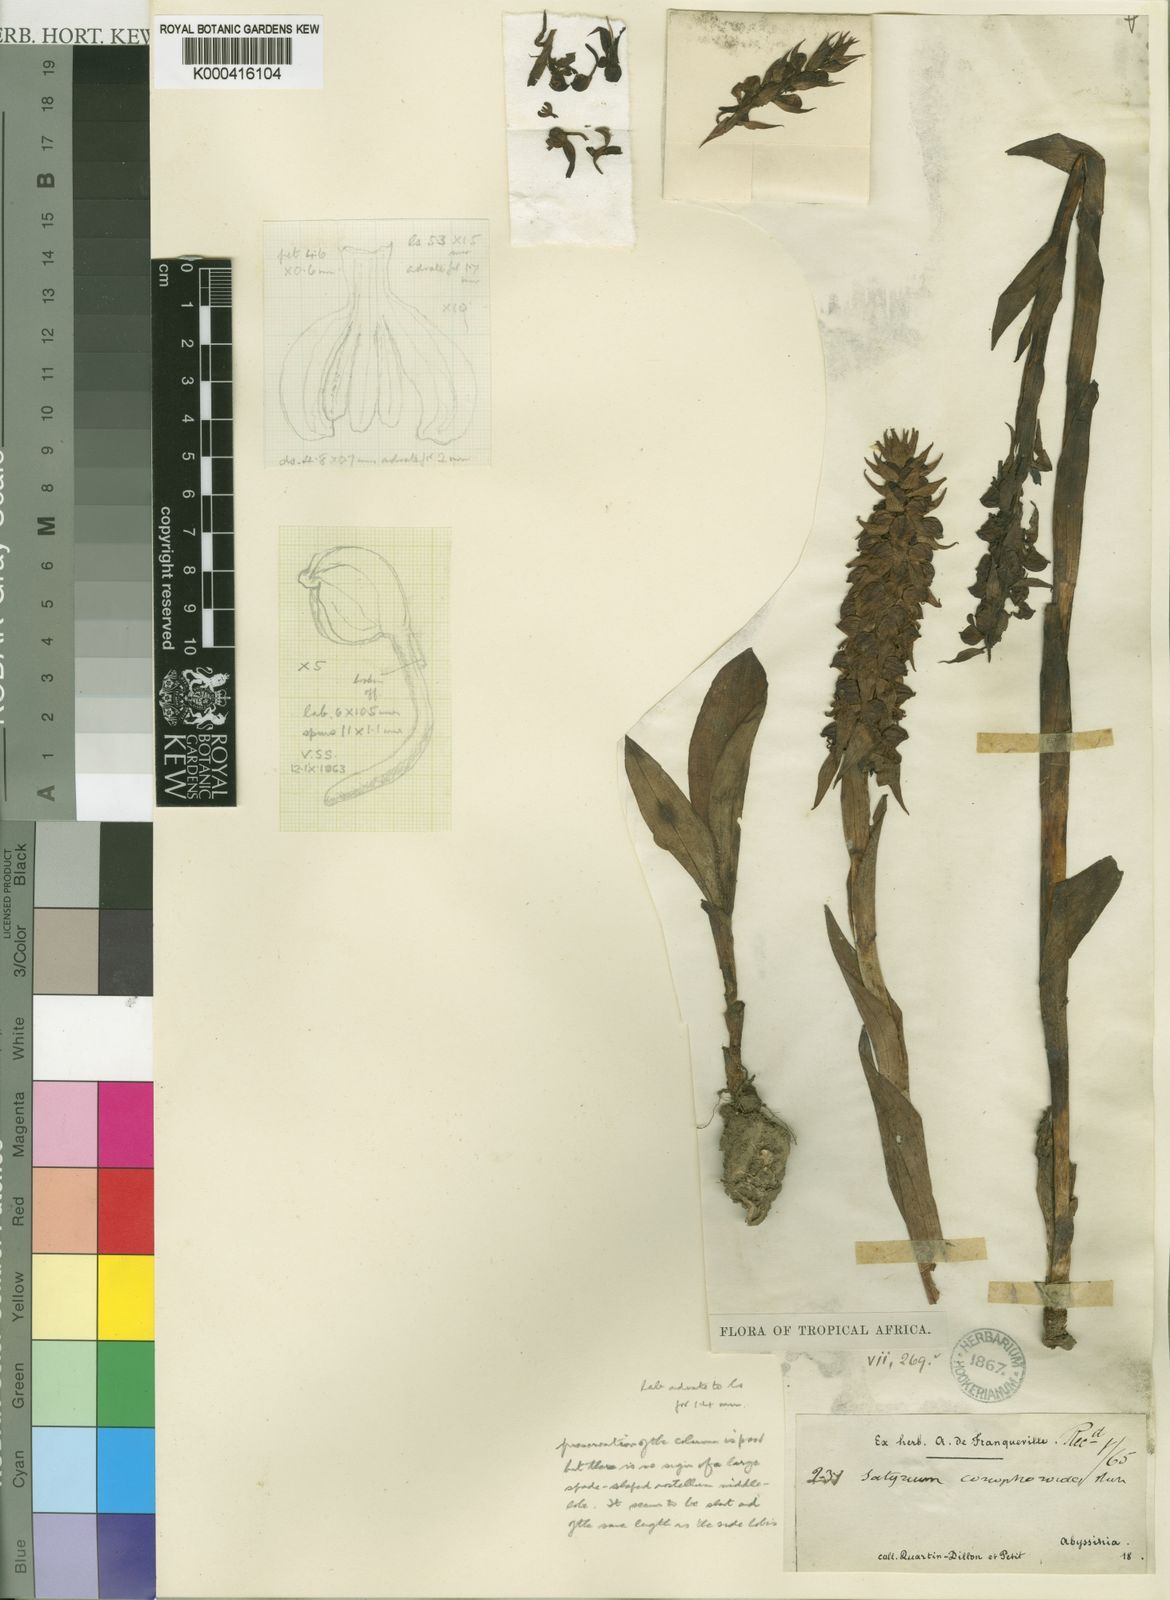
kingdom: Plantae
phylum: Tracheophyta
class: Liliopsida
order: Asparagales
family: Orchidaceae
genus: Satyrium
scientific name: Satyrium coriophoroides
